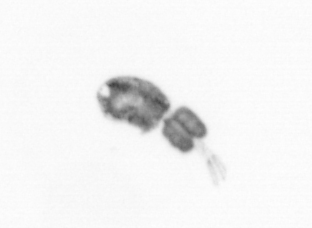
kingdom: Animalia
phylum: Arthropoda
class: Copepoda
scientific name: Copepoda
